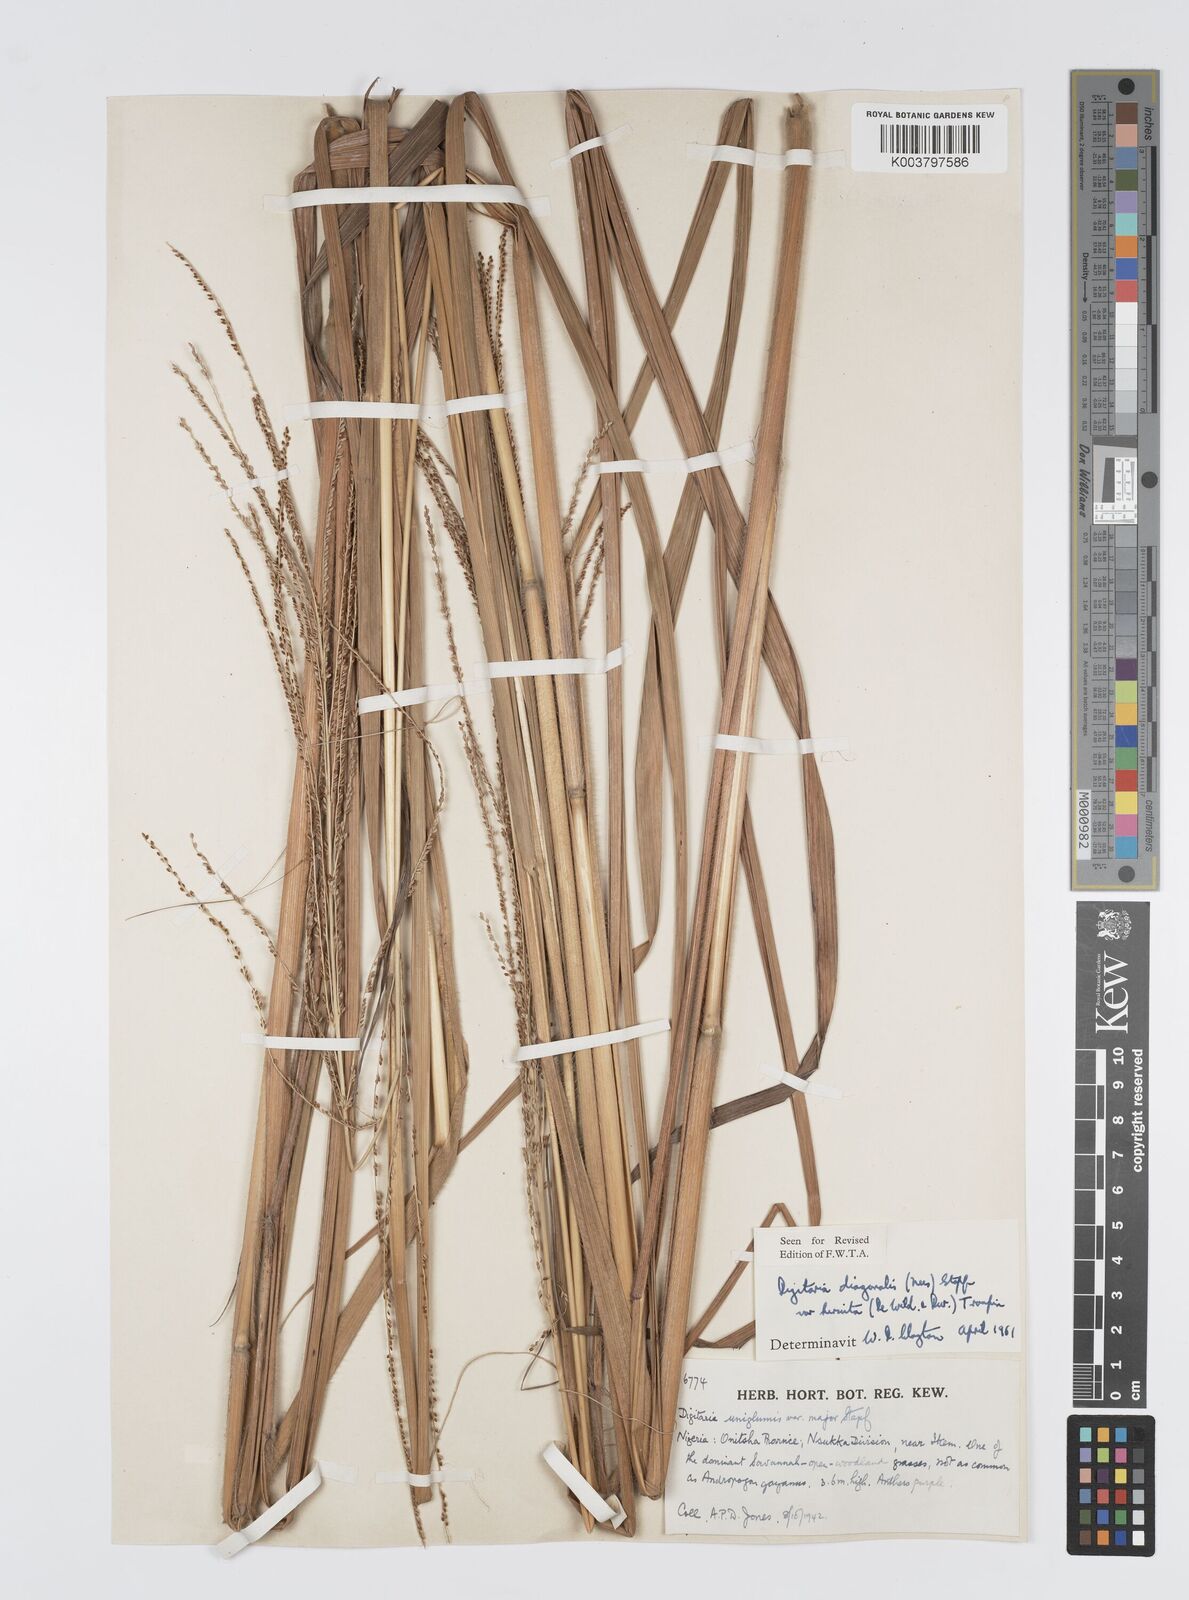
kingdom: Plantae
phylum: Tracheophyta
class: Liliopsida
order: Poales
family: Poaceae
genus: Digitaria
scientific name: Digitaria diagonalis
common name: Brown-seed finger grass
